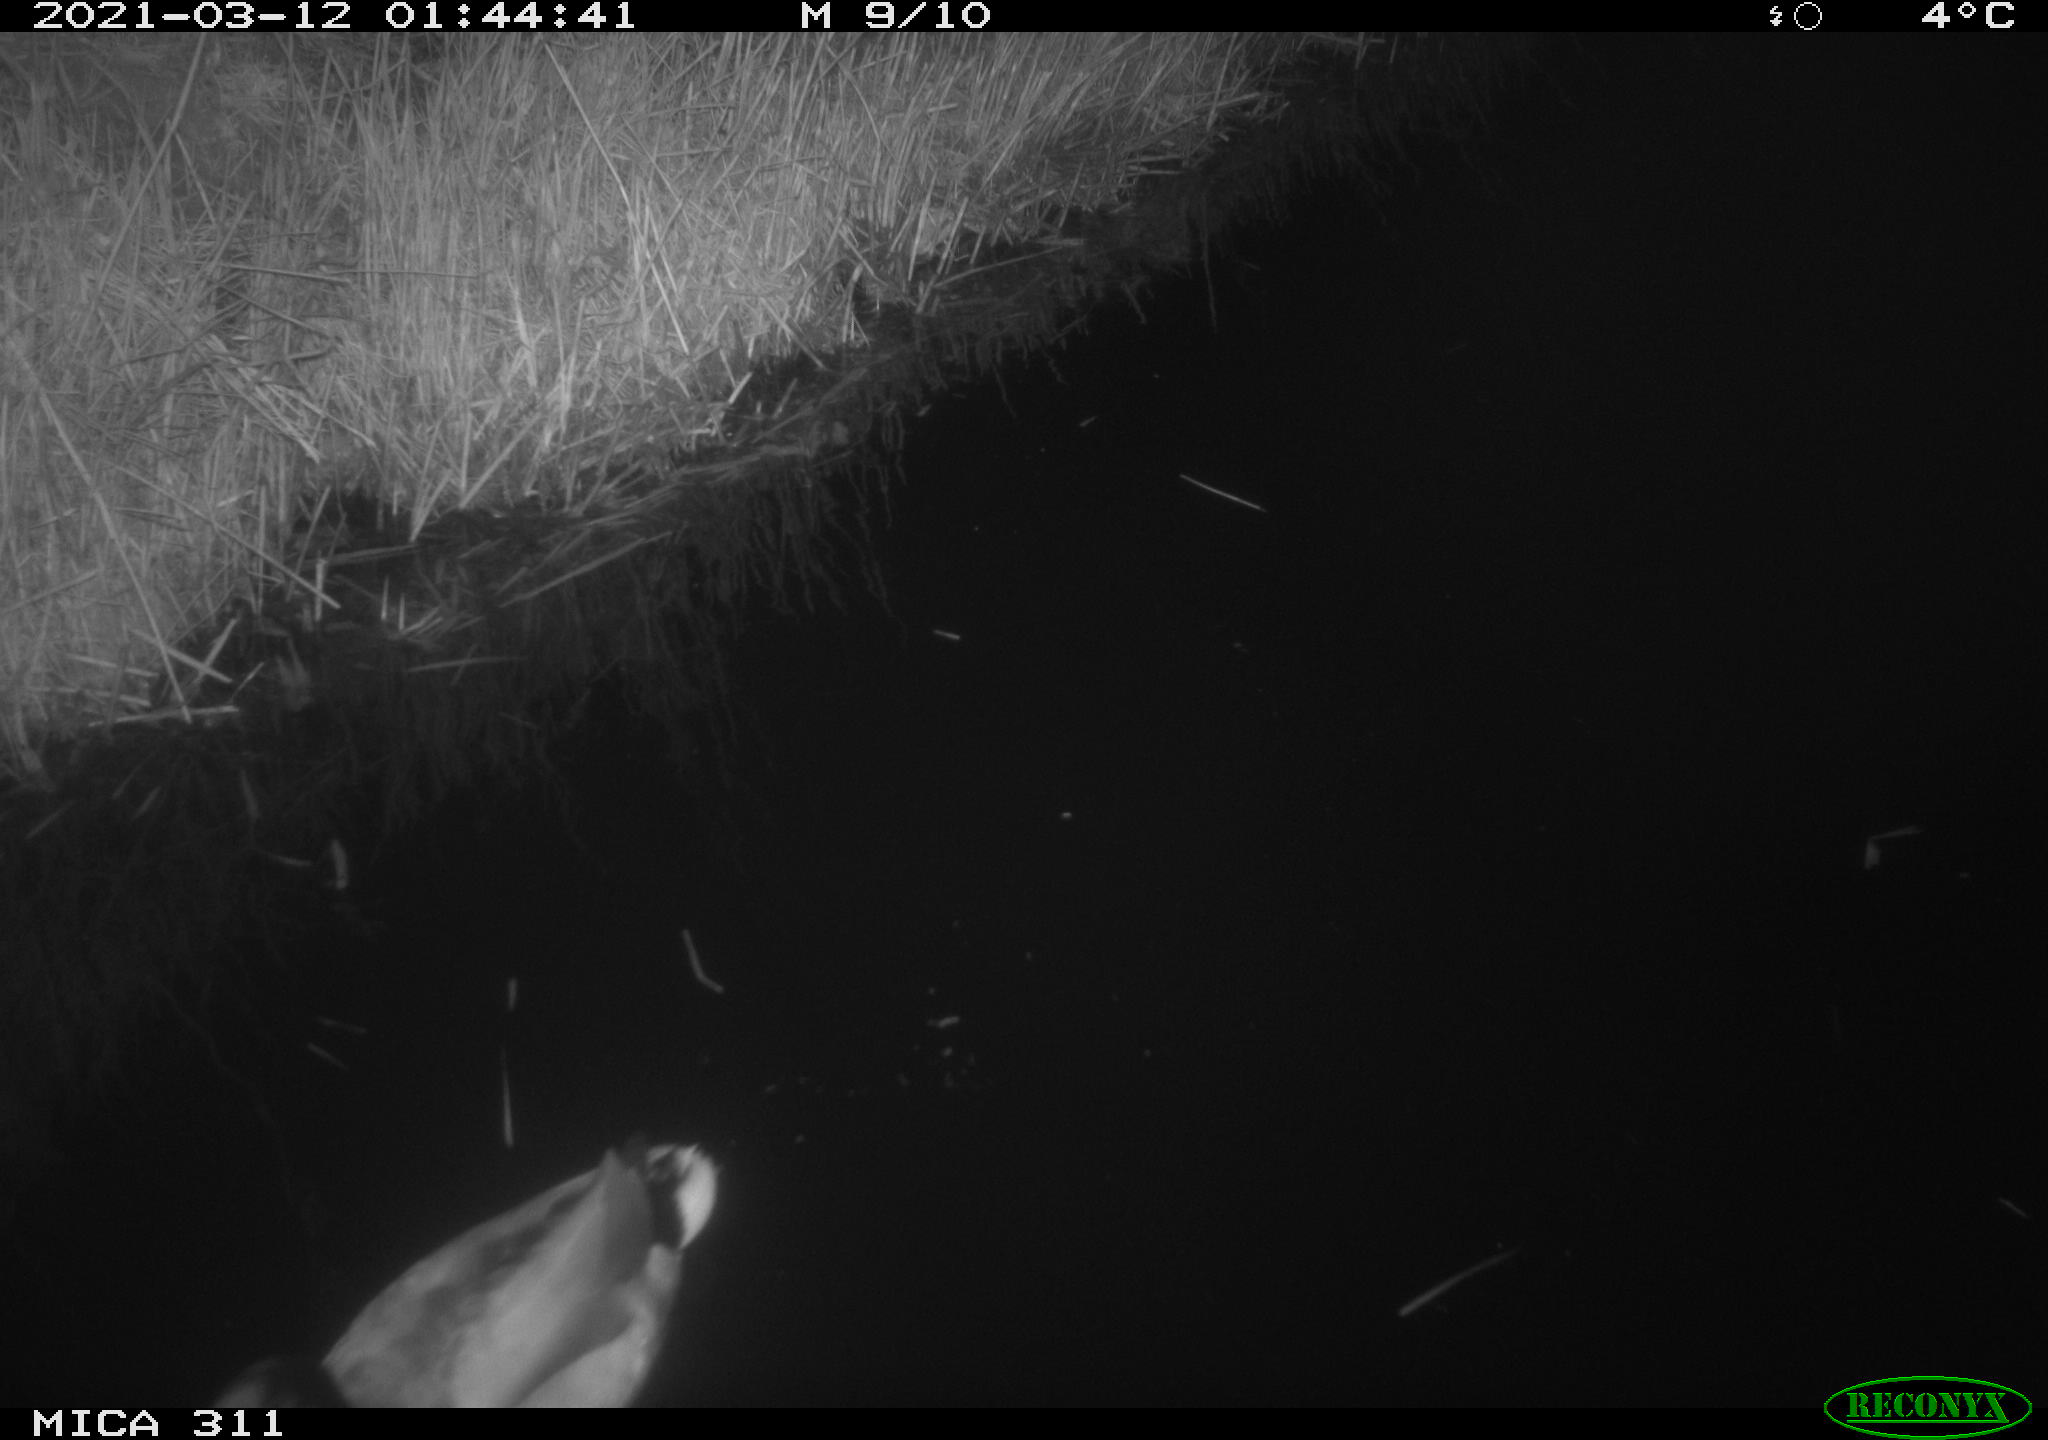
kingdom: Animalia
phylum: Chordata
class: Aves
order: Anseriformes
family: Anatidae
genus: Anas
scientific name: Anas
